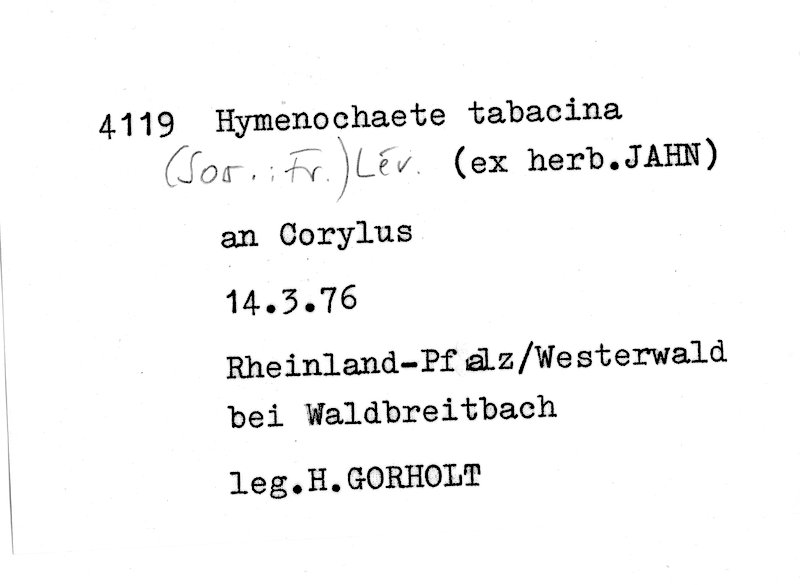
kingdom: Fungi
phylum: Basidiomycota
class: Agaricomycetes
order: Hymenochaetales
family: Hymenochaetaceae
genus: Hydnoporia
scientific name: Hydnoporia tabacina
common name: Willow glue
